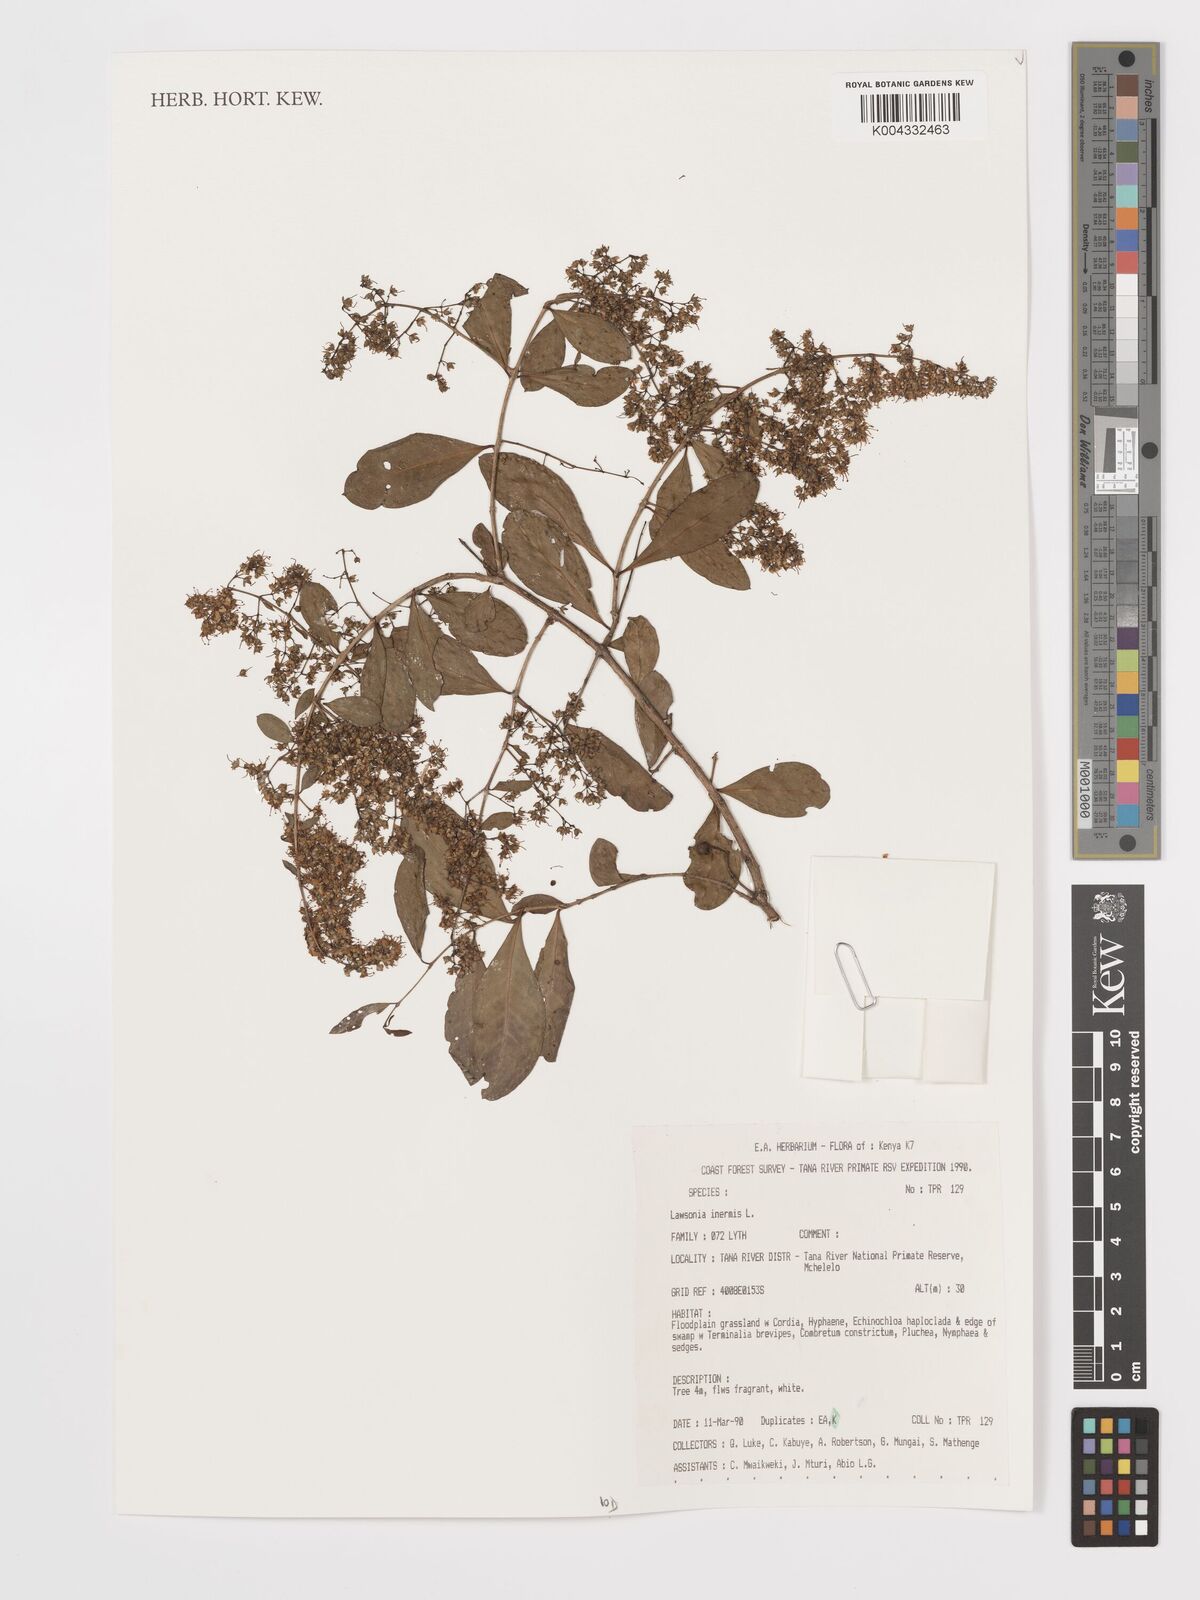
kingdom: Plantae
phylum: Tracheophyta
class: Magnoliopsida
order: Myrtales
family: Lythraceae
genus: Lawsonia
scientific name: Lawsonia inermis
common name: Henna
